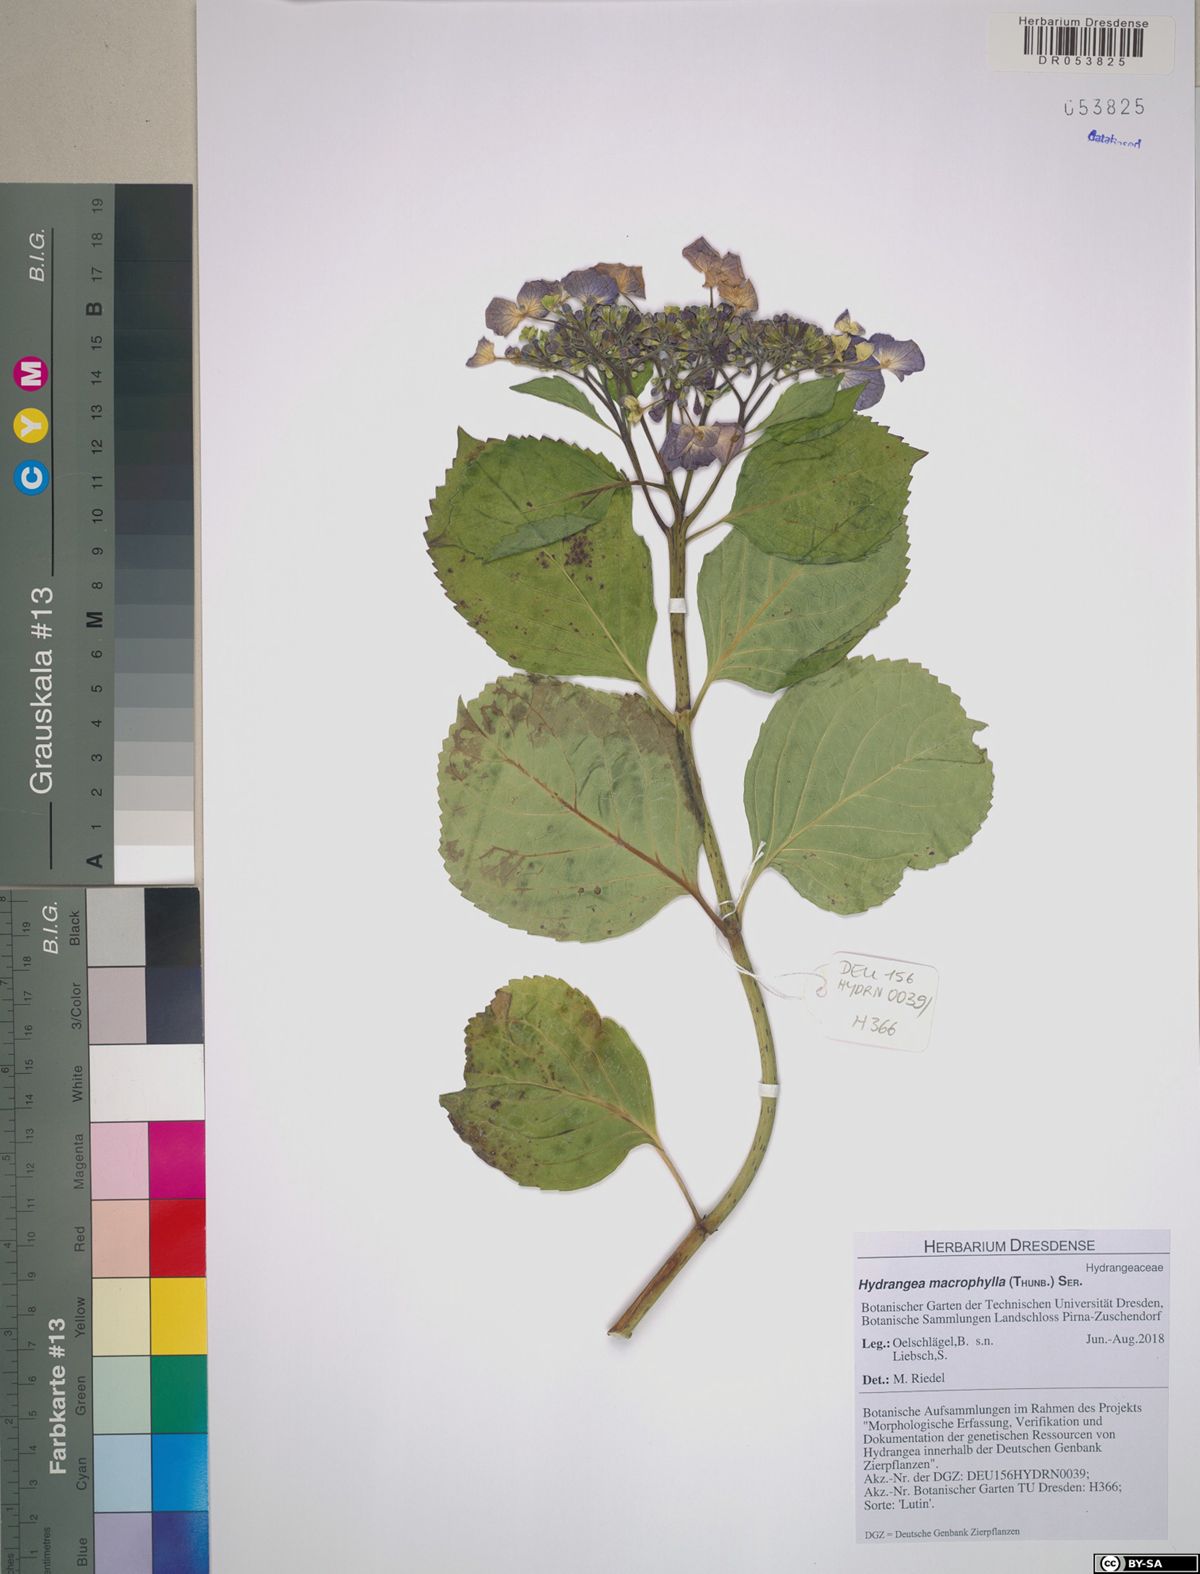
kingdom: Plantae
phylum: Tracheophyta
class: Magnoliopsida
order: Cornales
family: Hydrangeaceae
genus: Hydrangea
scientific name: Hydrangea macrophylla
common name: Hydrangea
